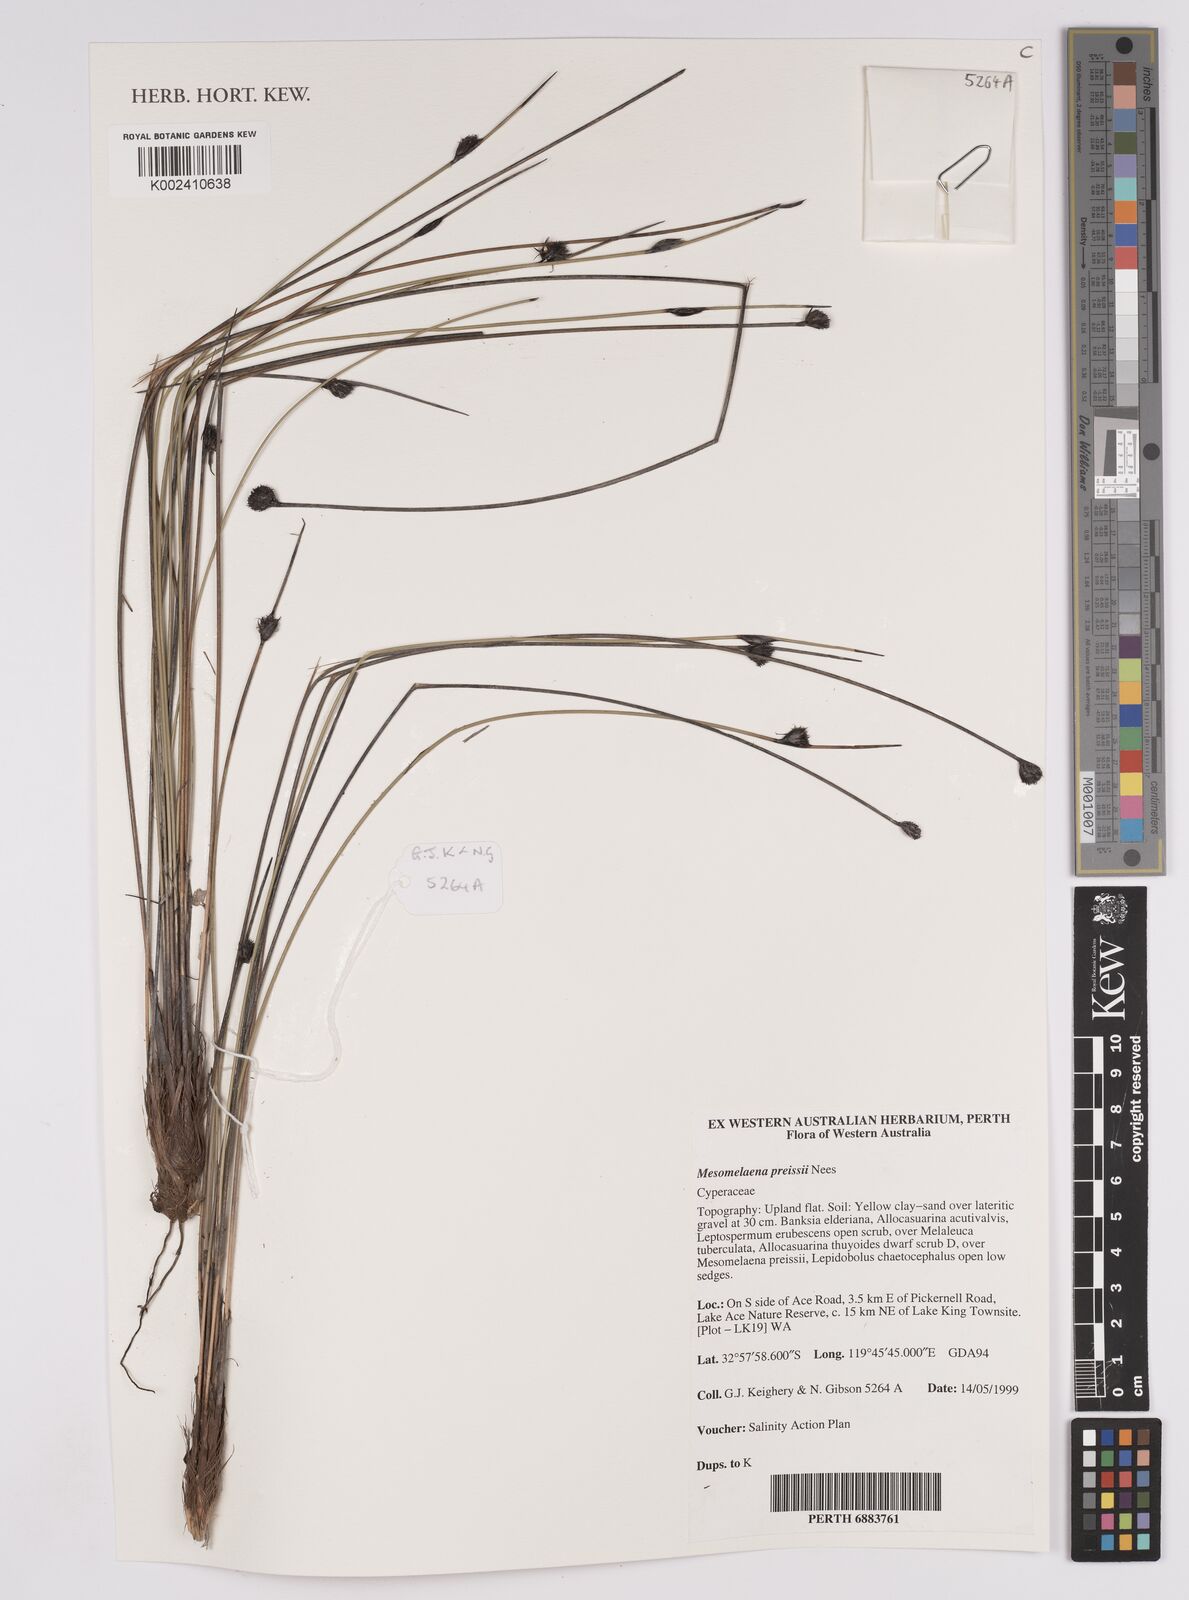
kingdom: Plantae
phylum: Tracheophyta
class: Liliopsida
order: Poales
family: Cyperaceae
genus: Mesomelaena
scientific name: Mesomelaena preissii
